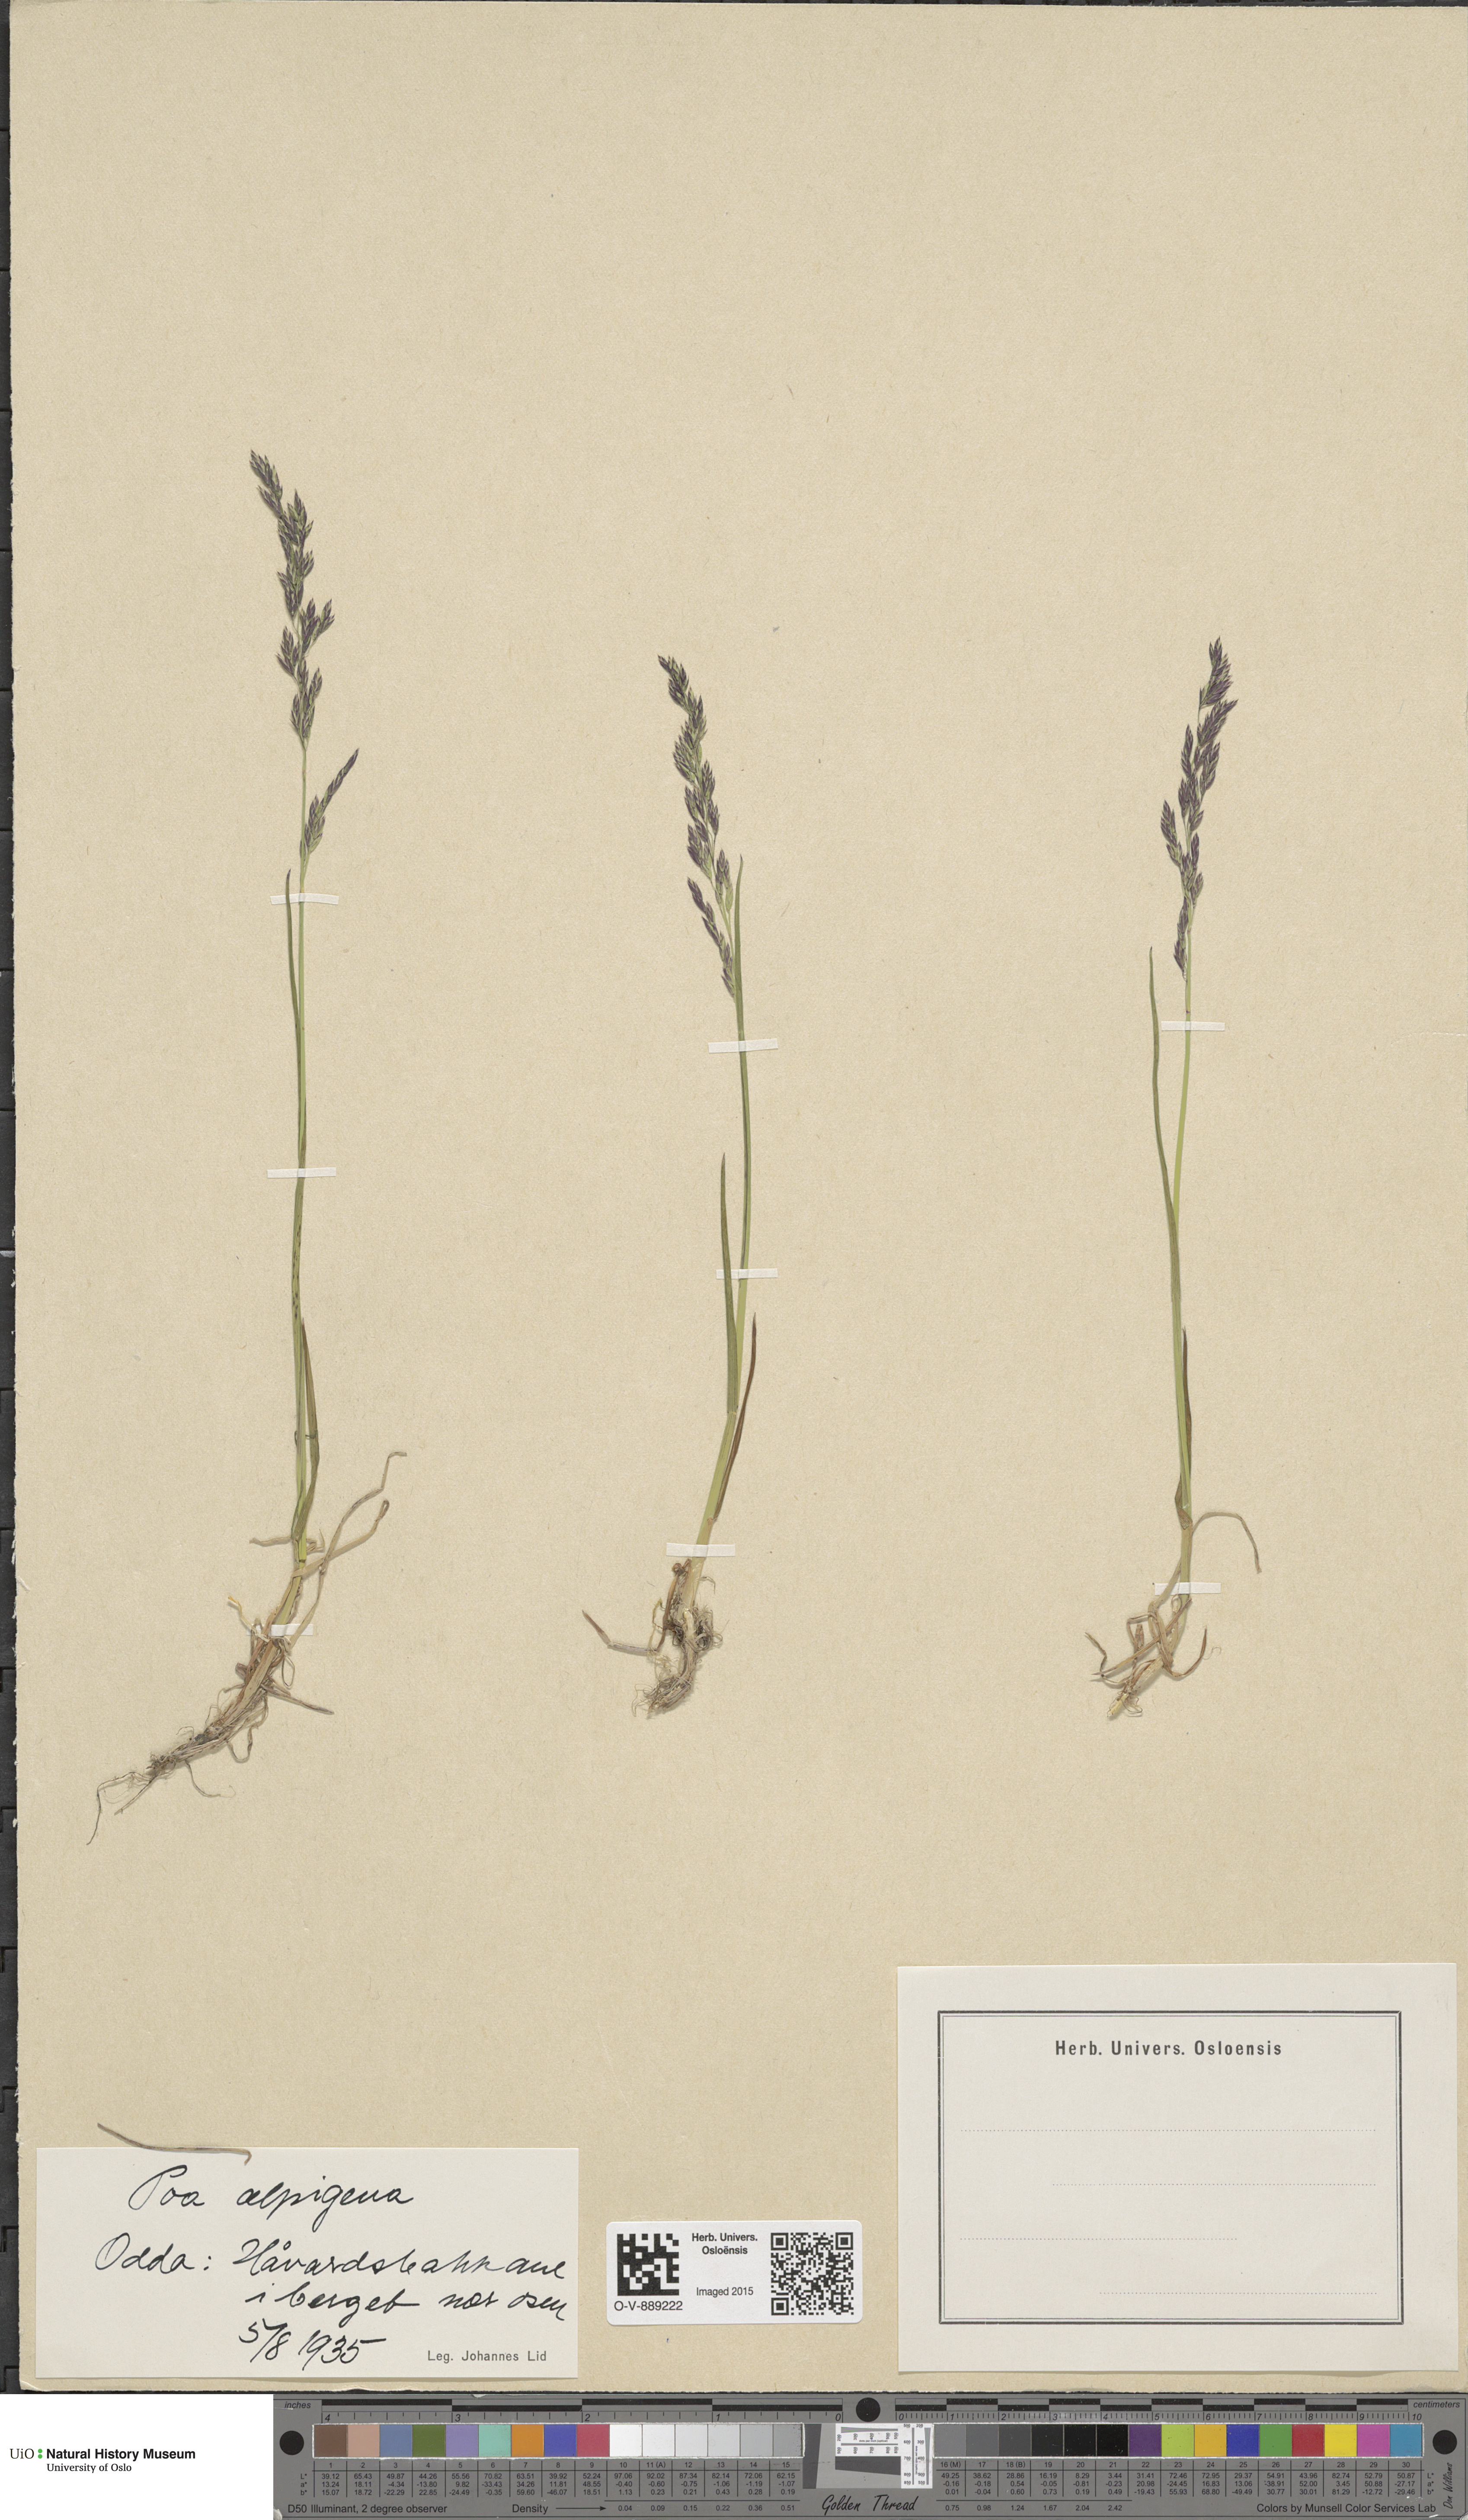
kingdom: Plantae
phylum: Tracheophyta
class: Liliopsida
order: Poales
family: Poaceae
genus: Poa
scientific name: Poa alpigena
